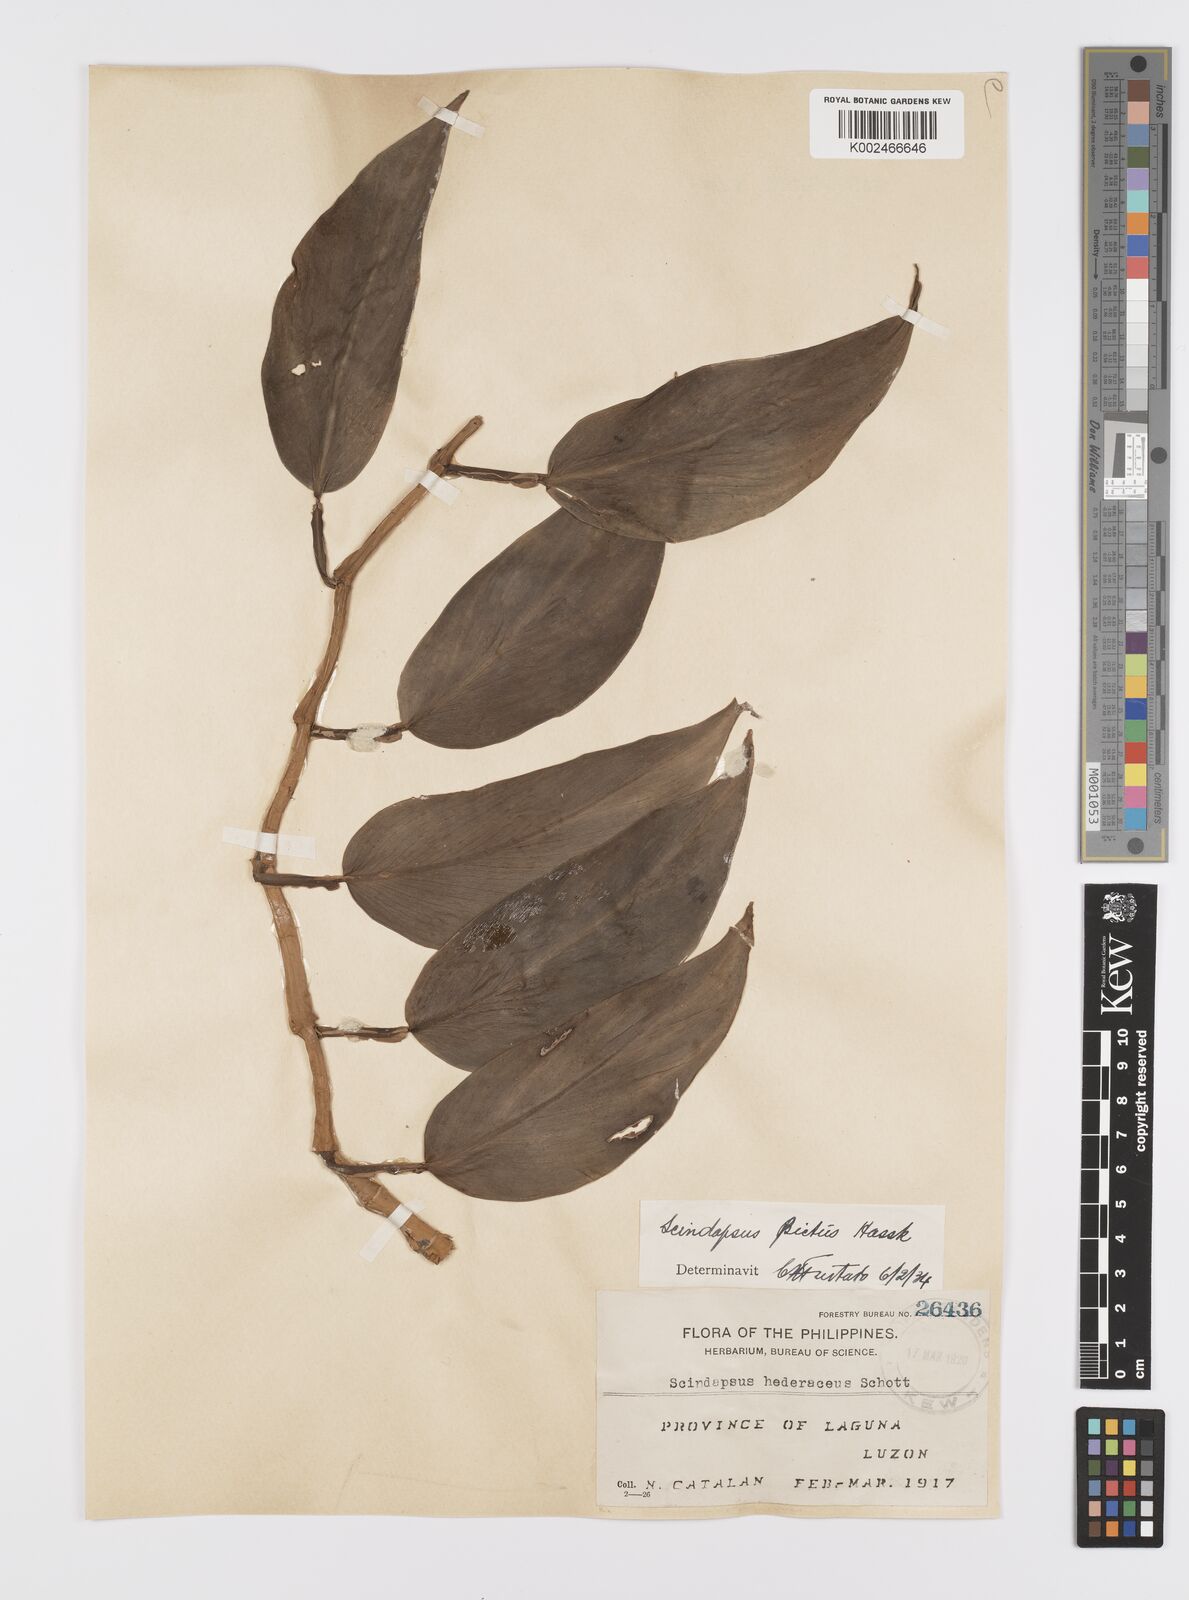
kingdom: Plantae
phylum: Tracheophyta
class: Liliopsida
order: Alismatales
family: Araceae
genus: Scindapsus
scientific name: Scindapsus pictus
